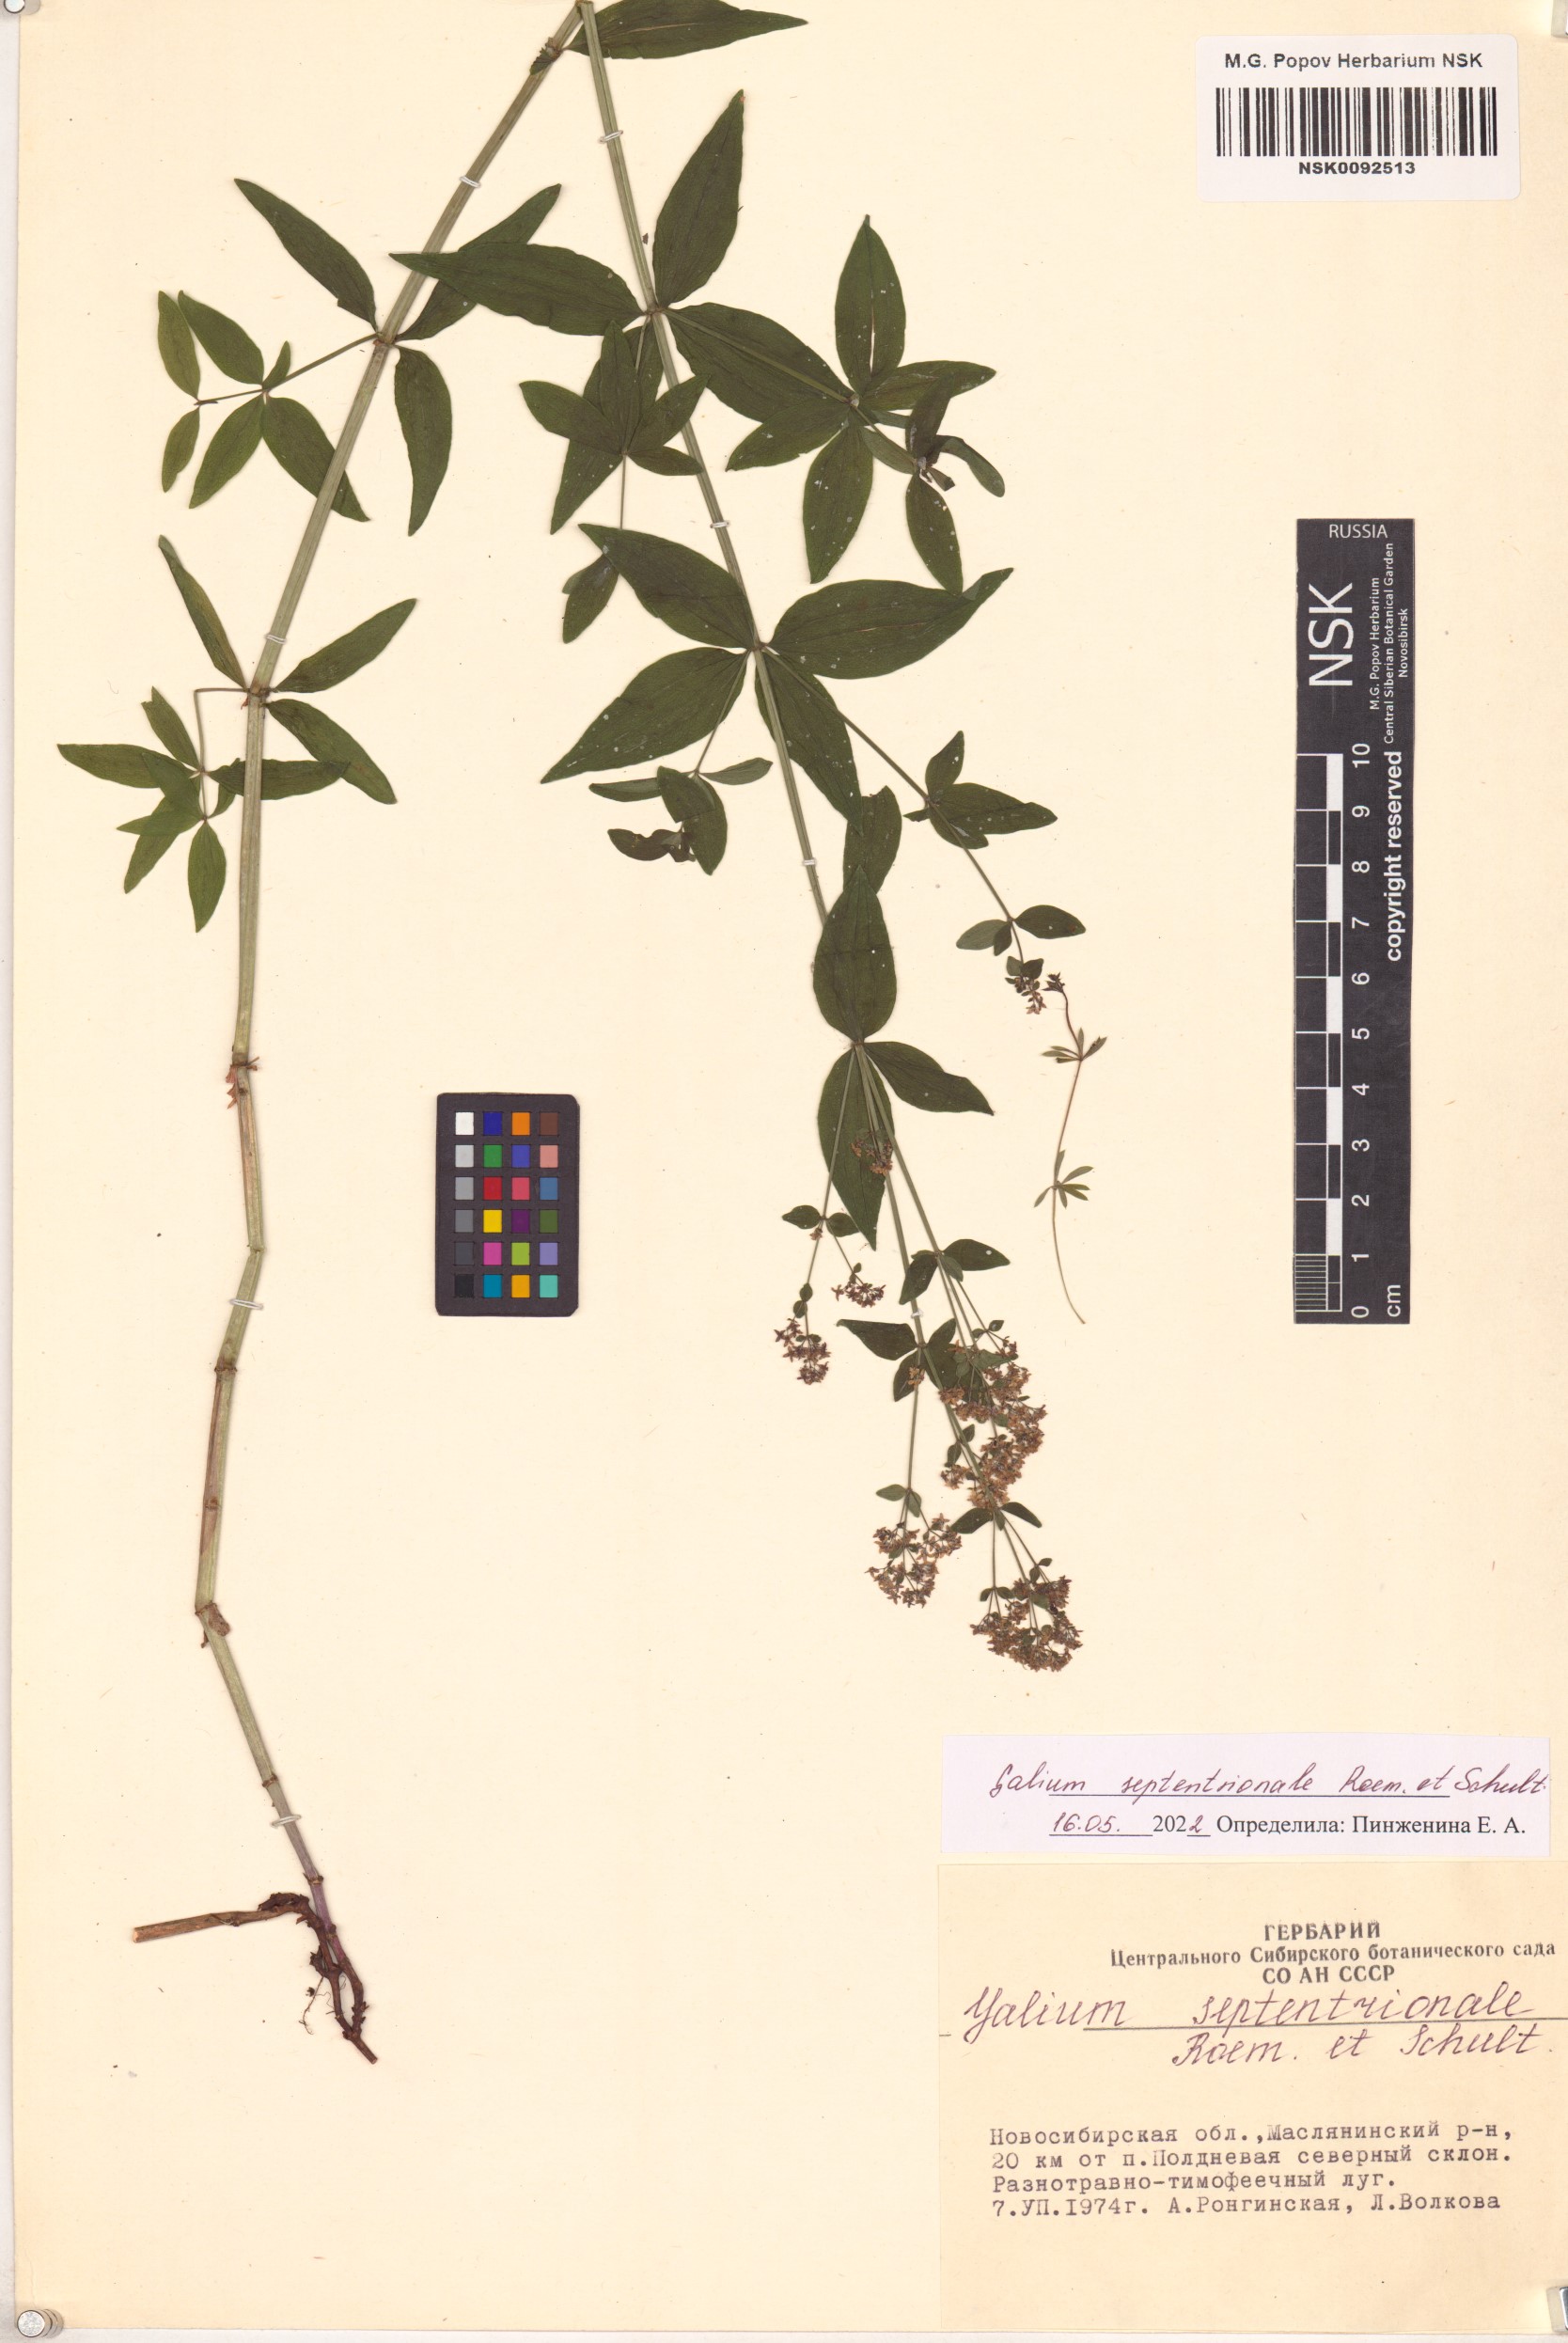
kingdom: Plantae
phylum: Tracheophyta
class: Magnoliopsida
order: Gentianales
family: Rubiaceae
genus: Galium
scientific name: Galium boreale
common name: Northern bedstraw
